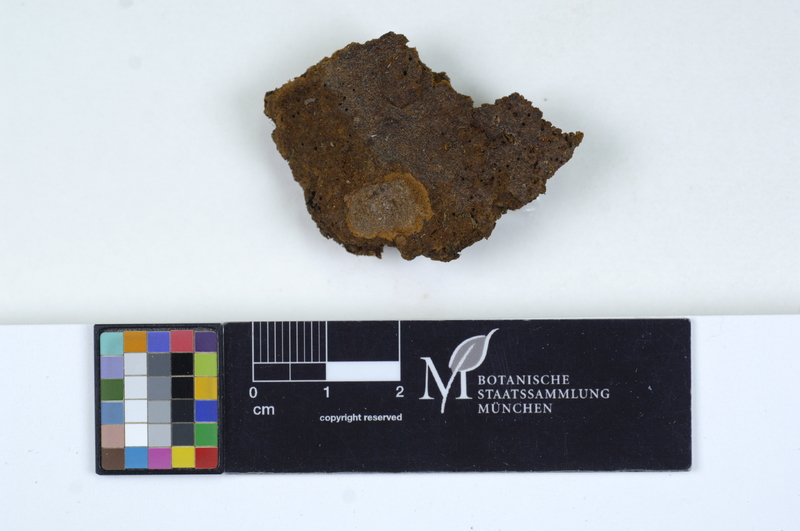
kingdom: Fungi
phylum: Basidiomycota
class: Agaricomycetes
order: Auriculariales
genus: Ofella
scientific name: Ofella glaira
